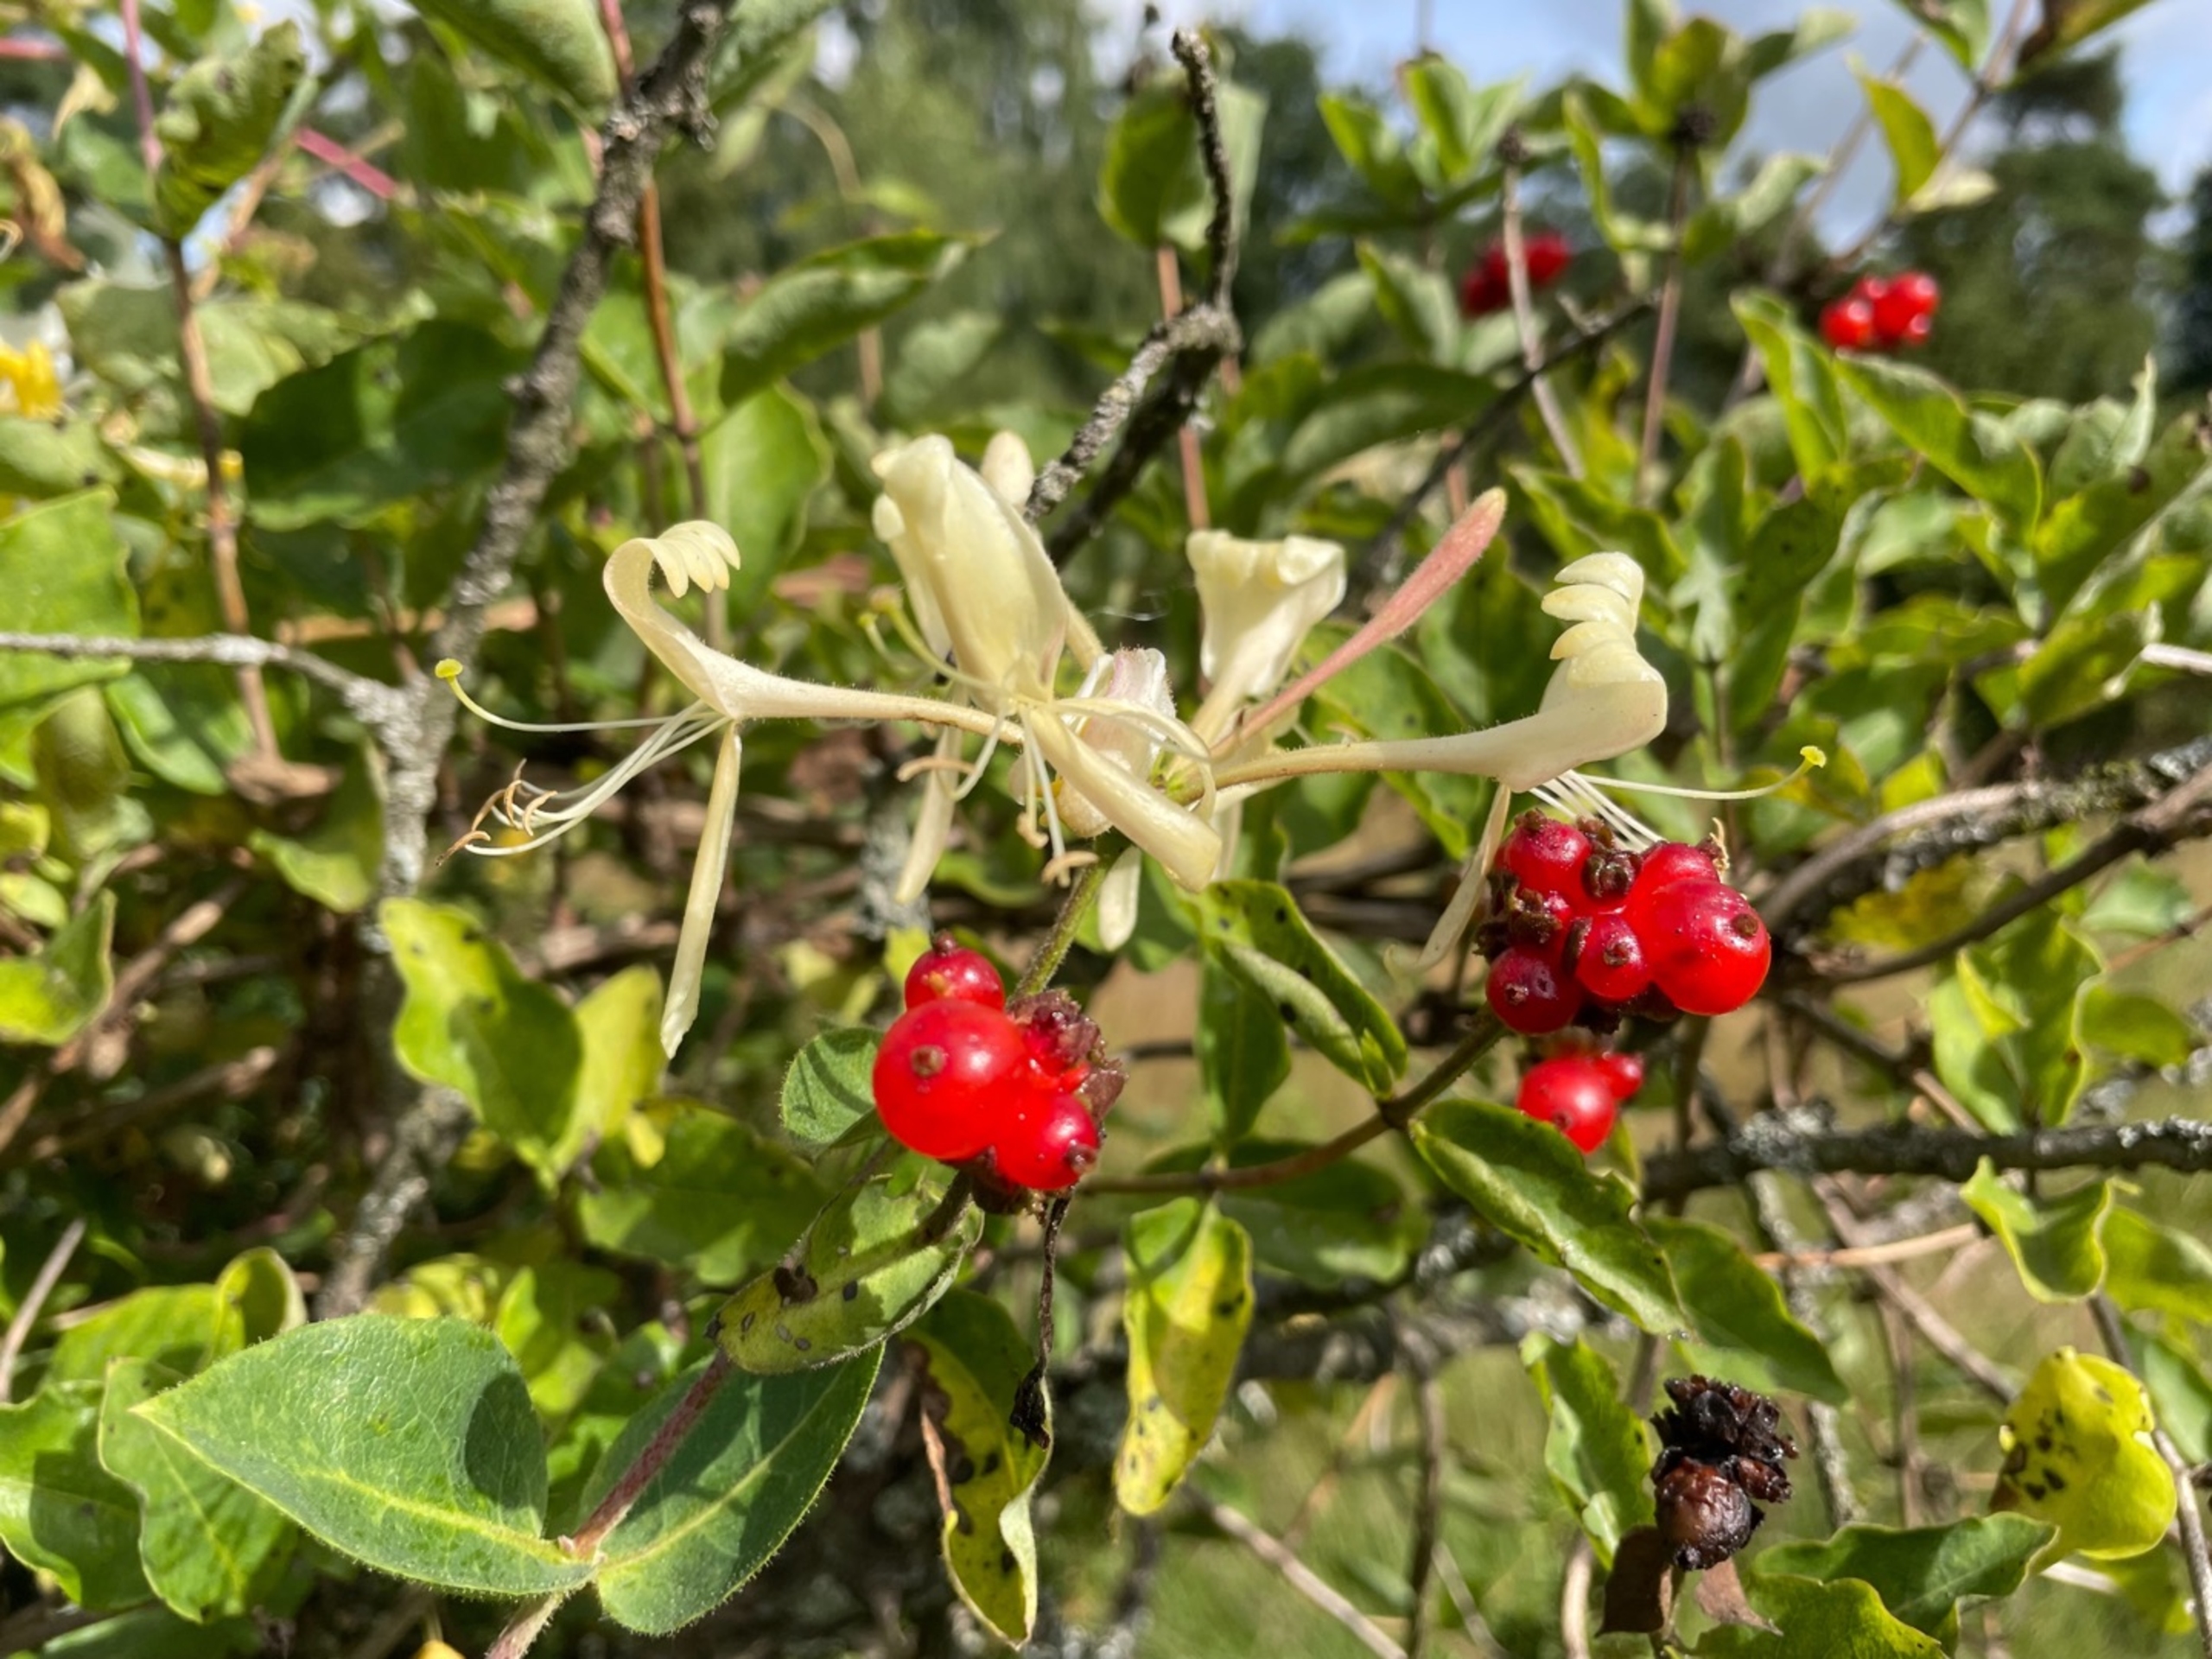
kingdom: Plantae
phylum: Tracheophyta
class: Magnoliopsida
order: Dipsacales
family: Caprifoliaceae
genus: Lonicera
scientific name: Lonicera periclymenum
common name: Almindelig gedeblad
